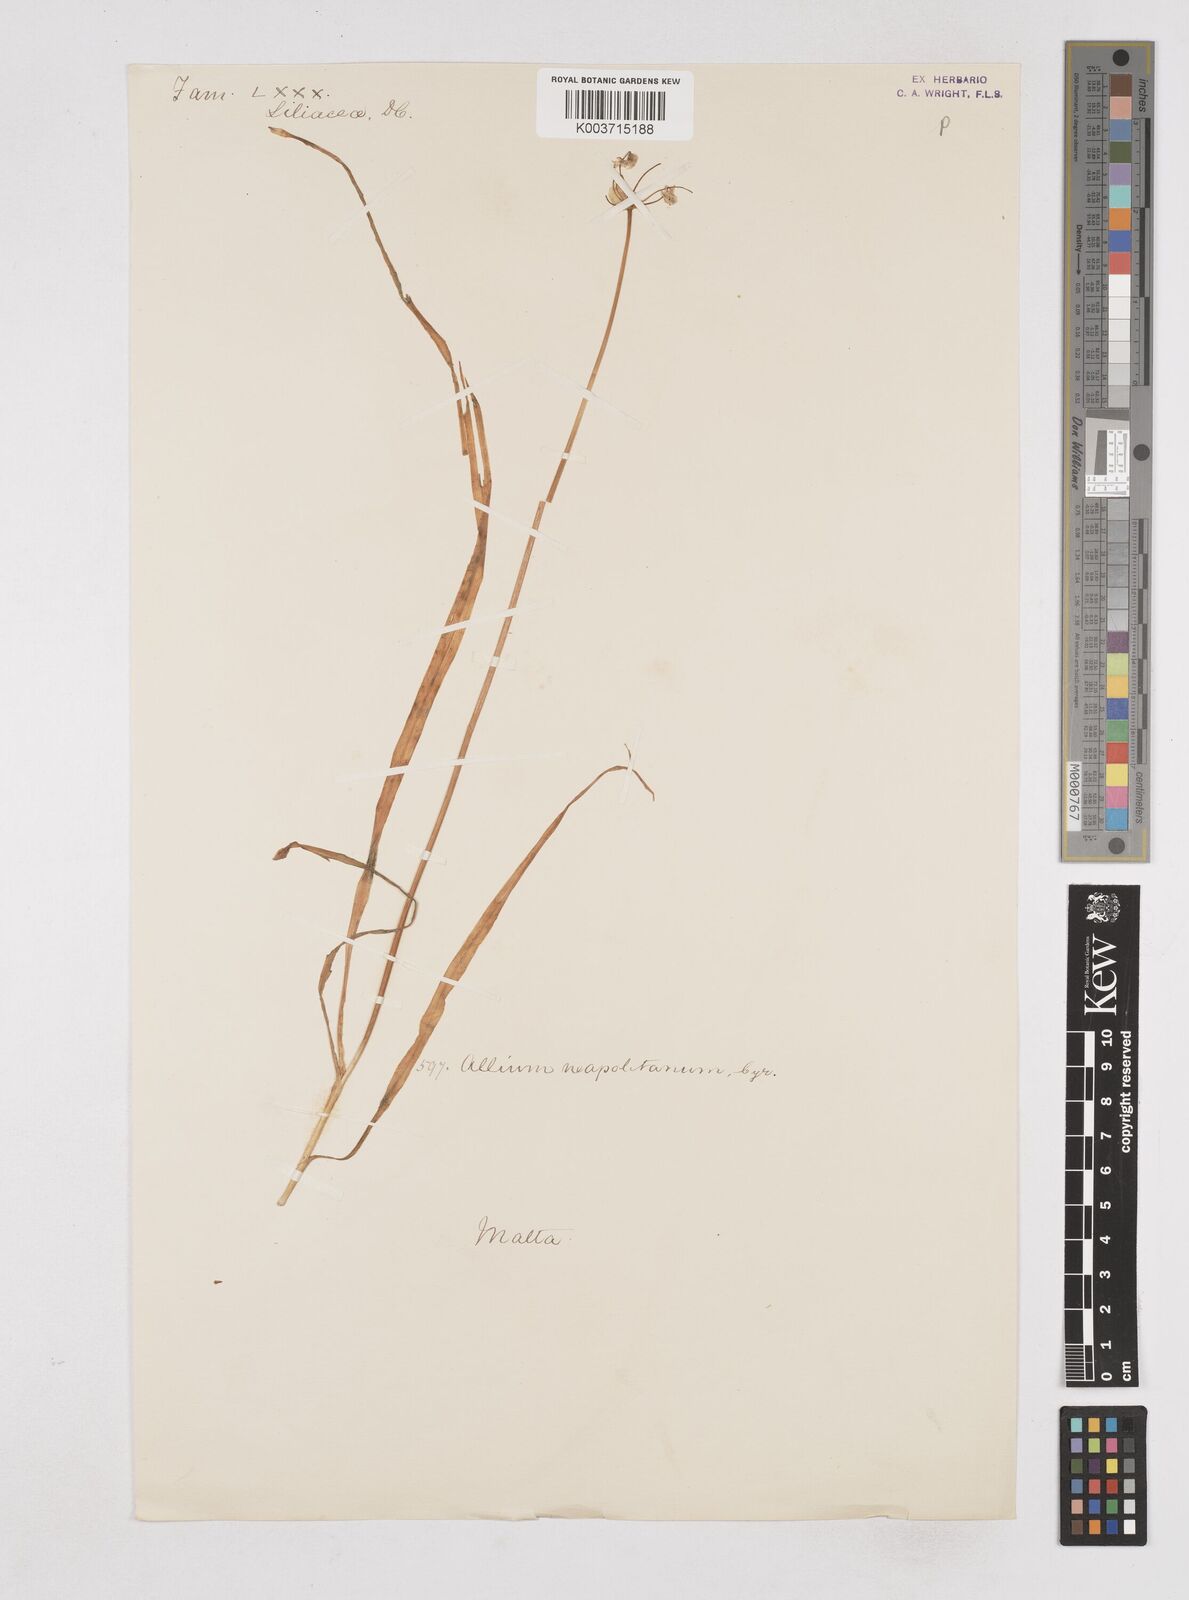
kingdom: Plantae
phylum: Tracheophyta
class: Liliopsida
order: Asparagales
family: Amaryllidaceae
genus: Allium
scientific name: Allium neapolitanum
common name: Neapolitan garlic
